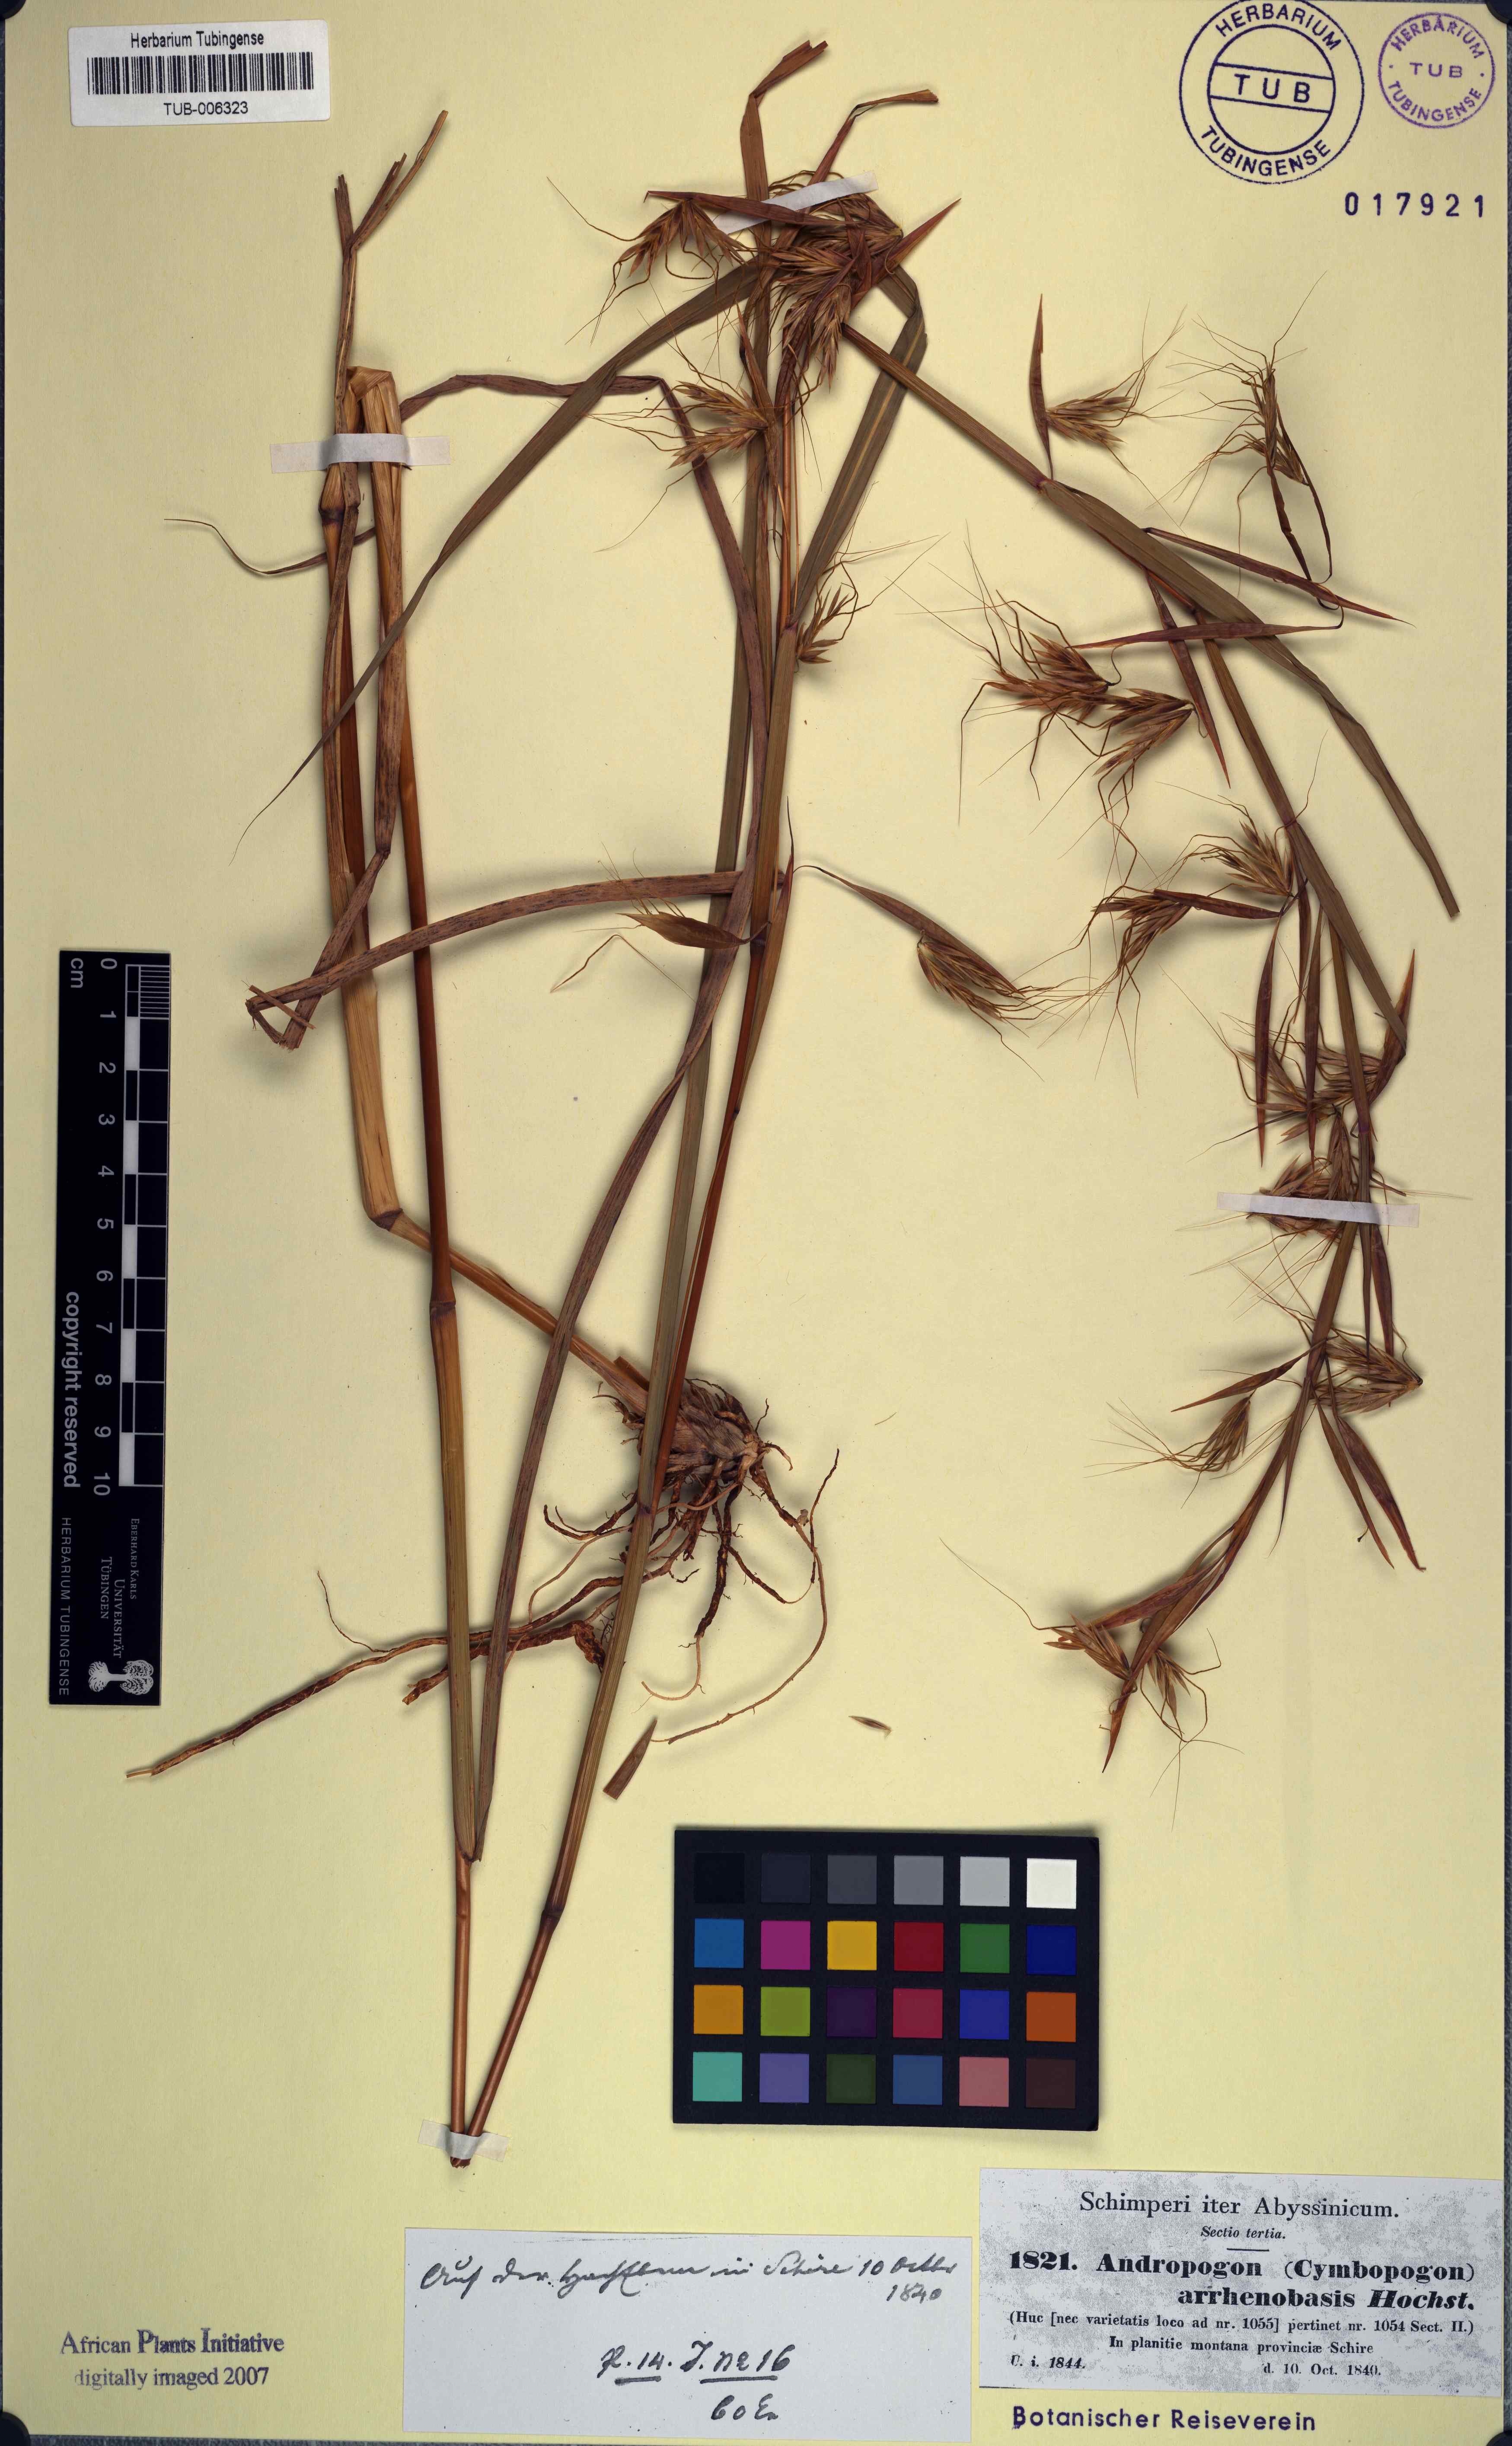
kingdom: Plantae
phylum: Tracheophyta
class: Liliopsida
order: Poales
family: Poaceae
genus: Hyparrhenia
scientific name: Hyparrhenia arrhenobasis
